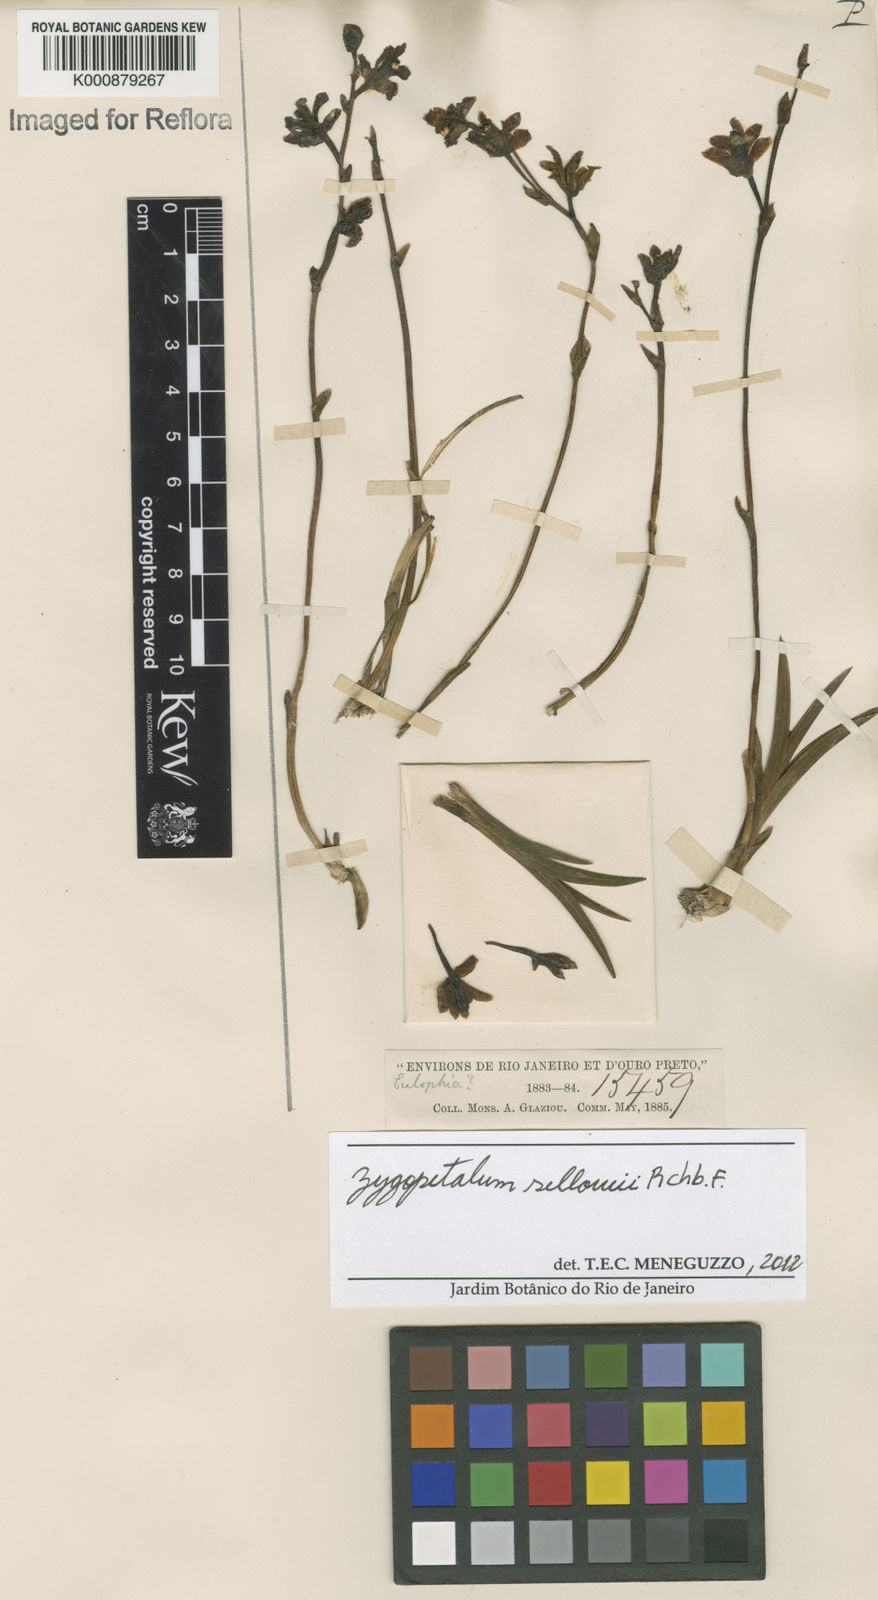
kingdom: Plantae
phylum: Tracheophyta
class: Liliopsida
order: Asparagales
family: Orchidaceae
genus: Zygopetalum
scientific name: Zygopetalum sellowii
